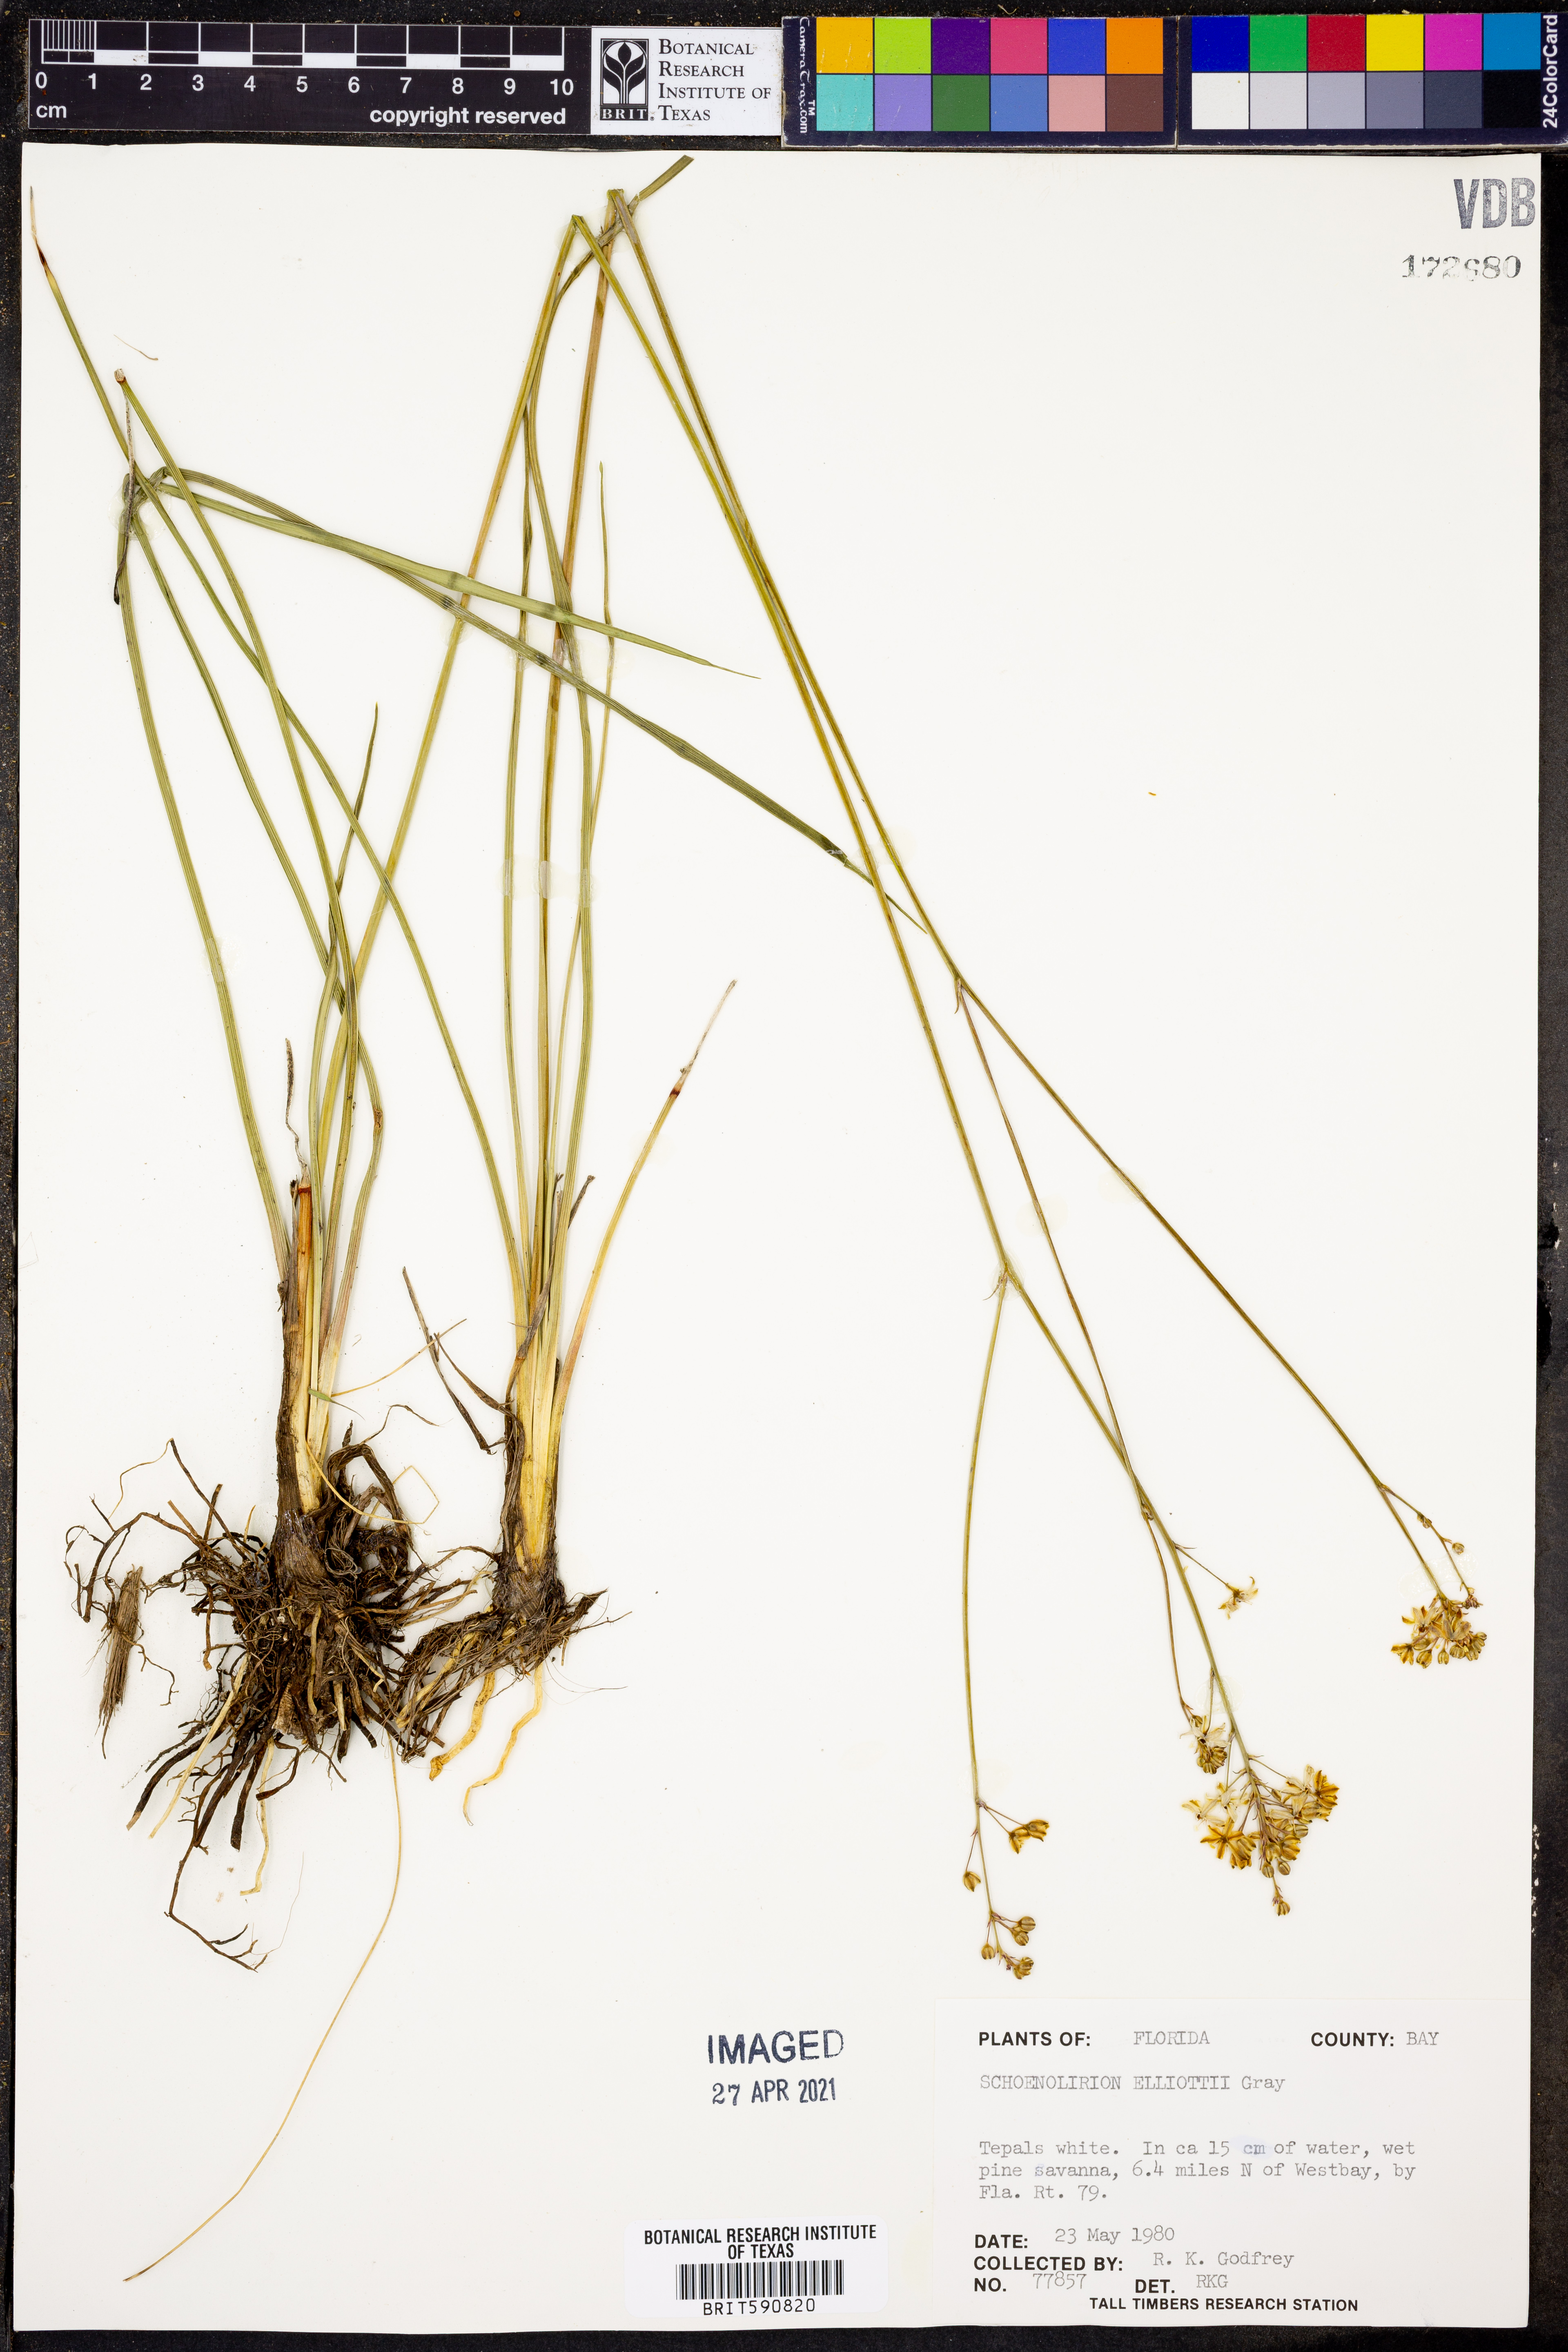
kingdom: Plantae
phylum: Tracheophyta
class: Liliopsida
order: Asparagales
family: Asparagaceae
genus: Schoenolirion
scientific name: Schoenolirion albiflorum
